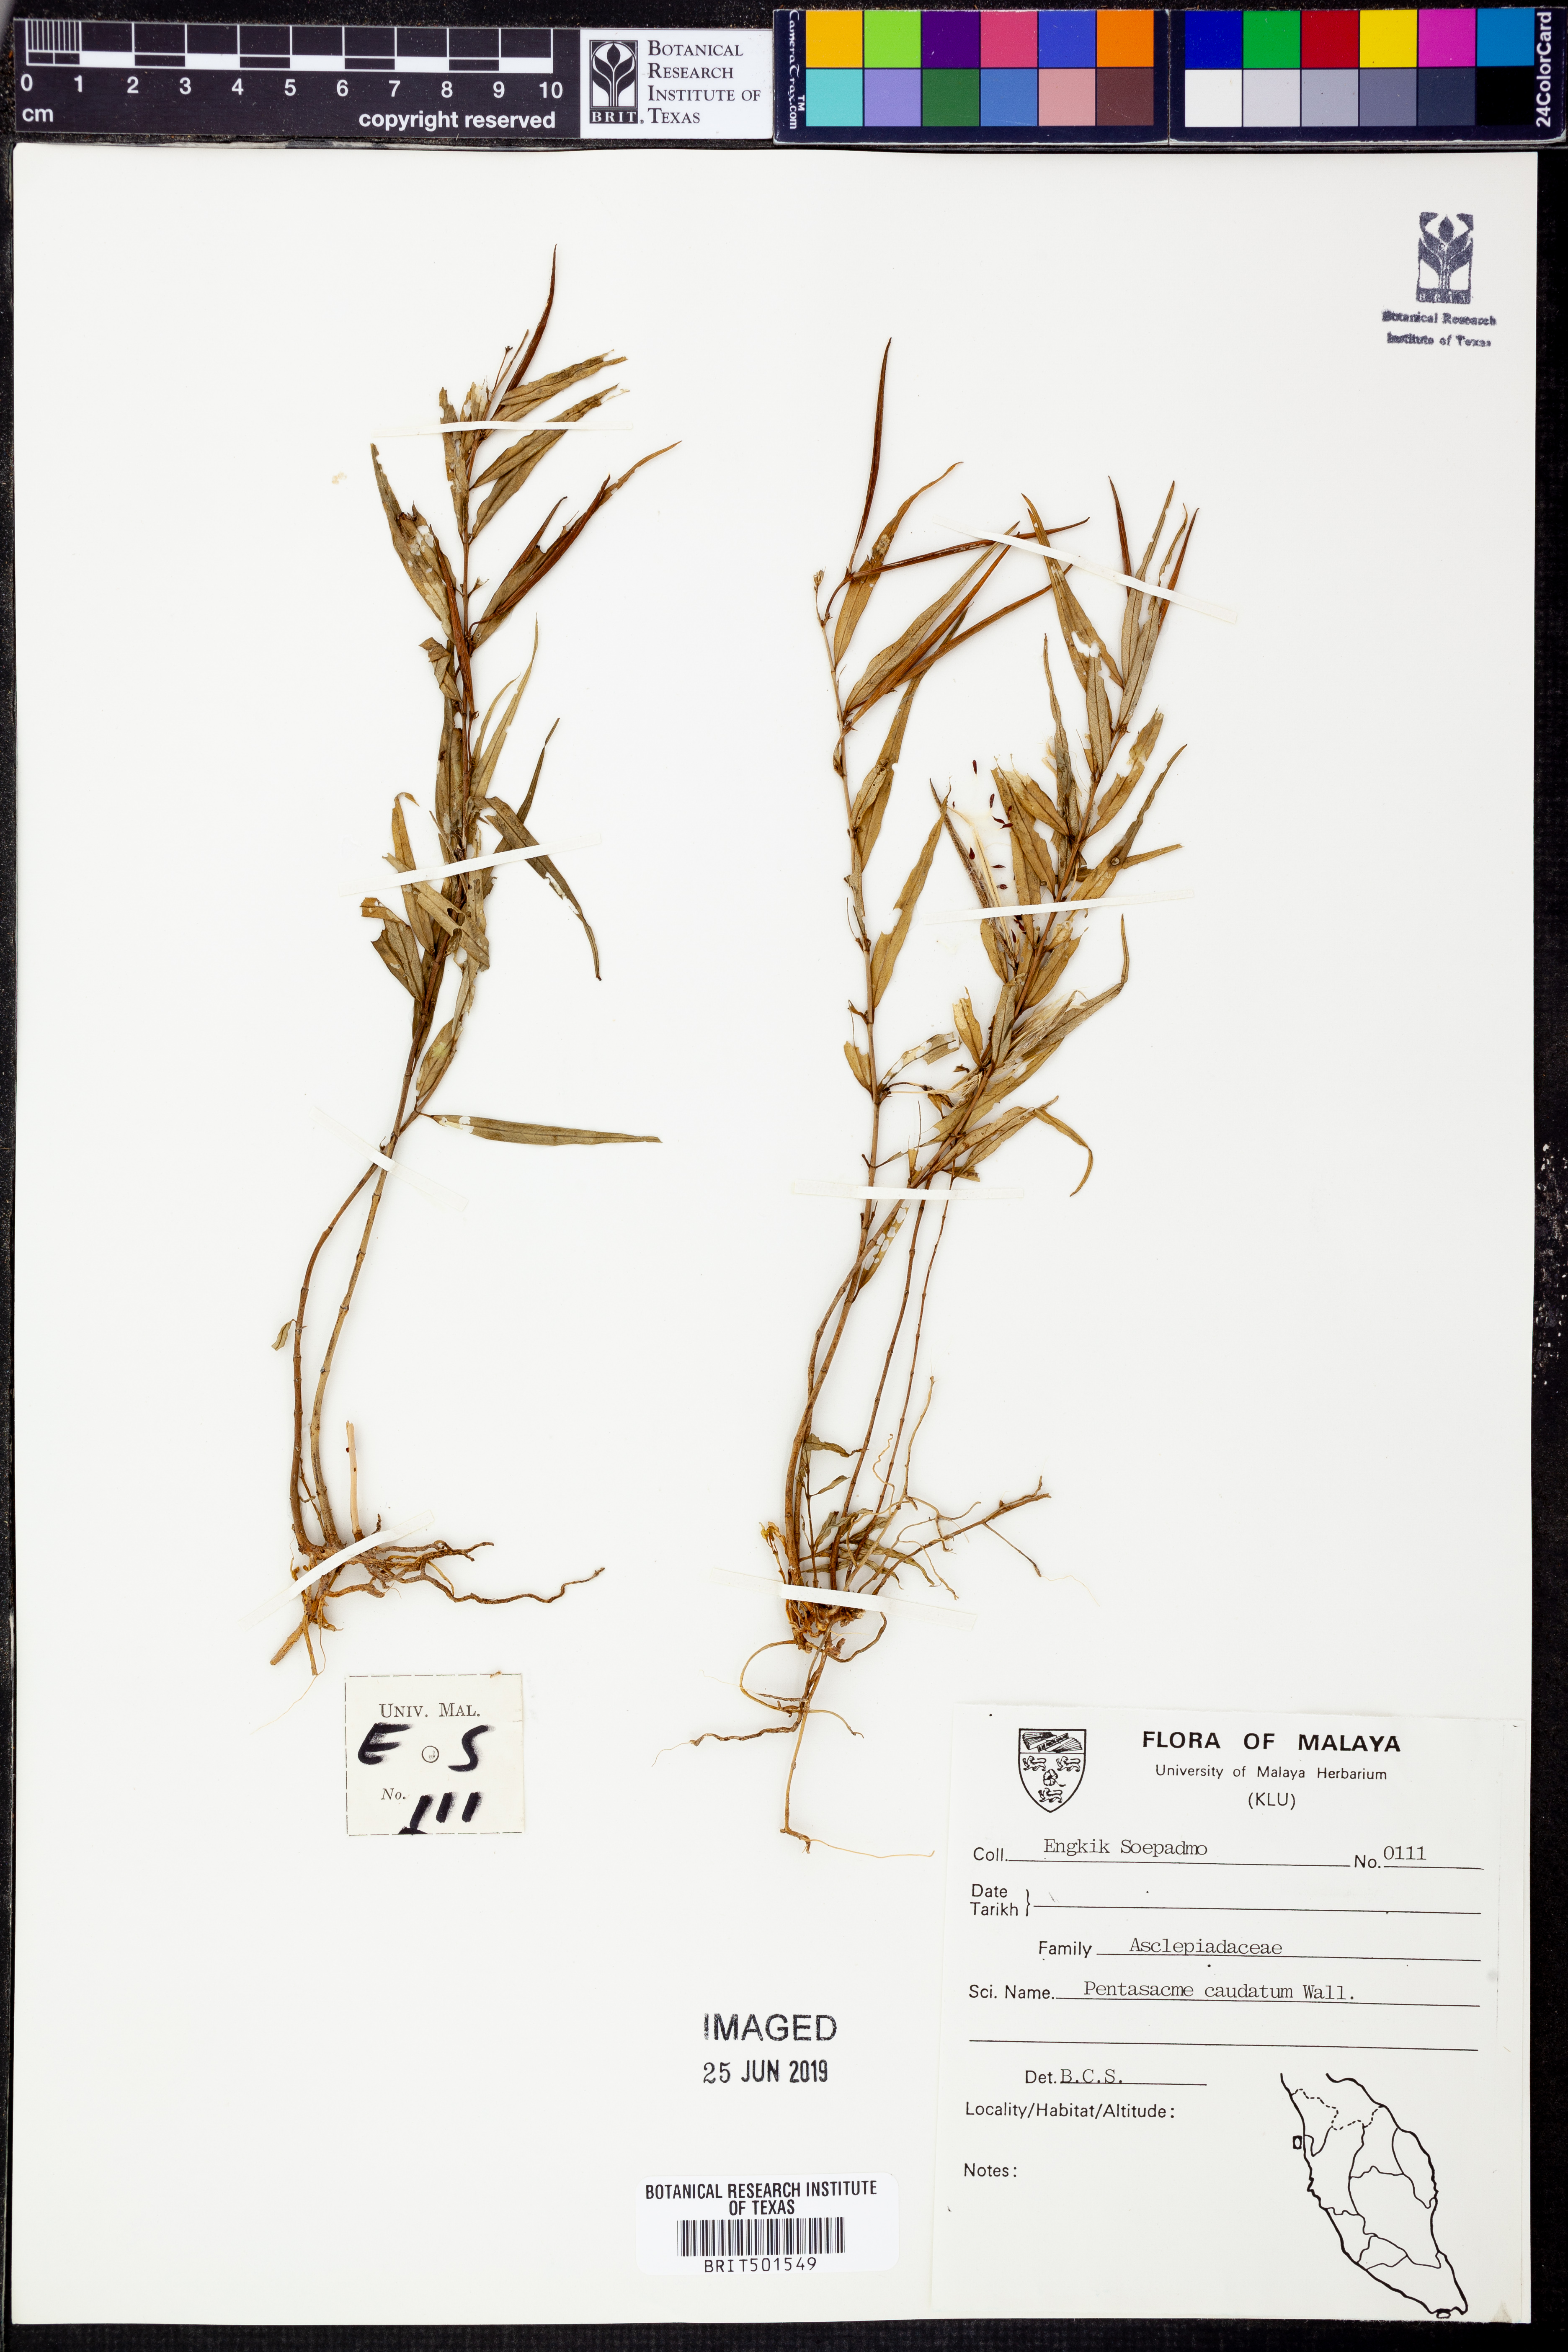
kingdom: Plantae
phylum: Tracheophyta
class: Magnoliopsida
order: Gentianales
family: Apocynaceae
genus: Pentasacme
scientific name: Pentasacme caudatum
